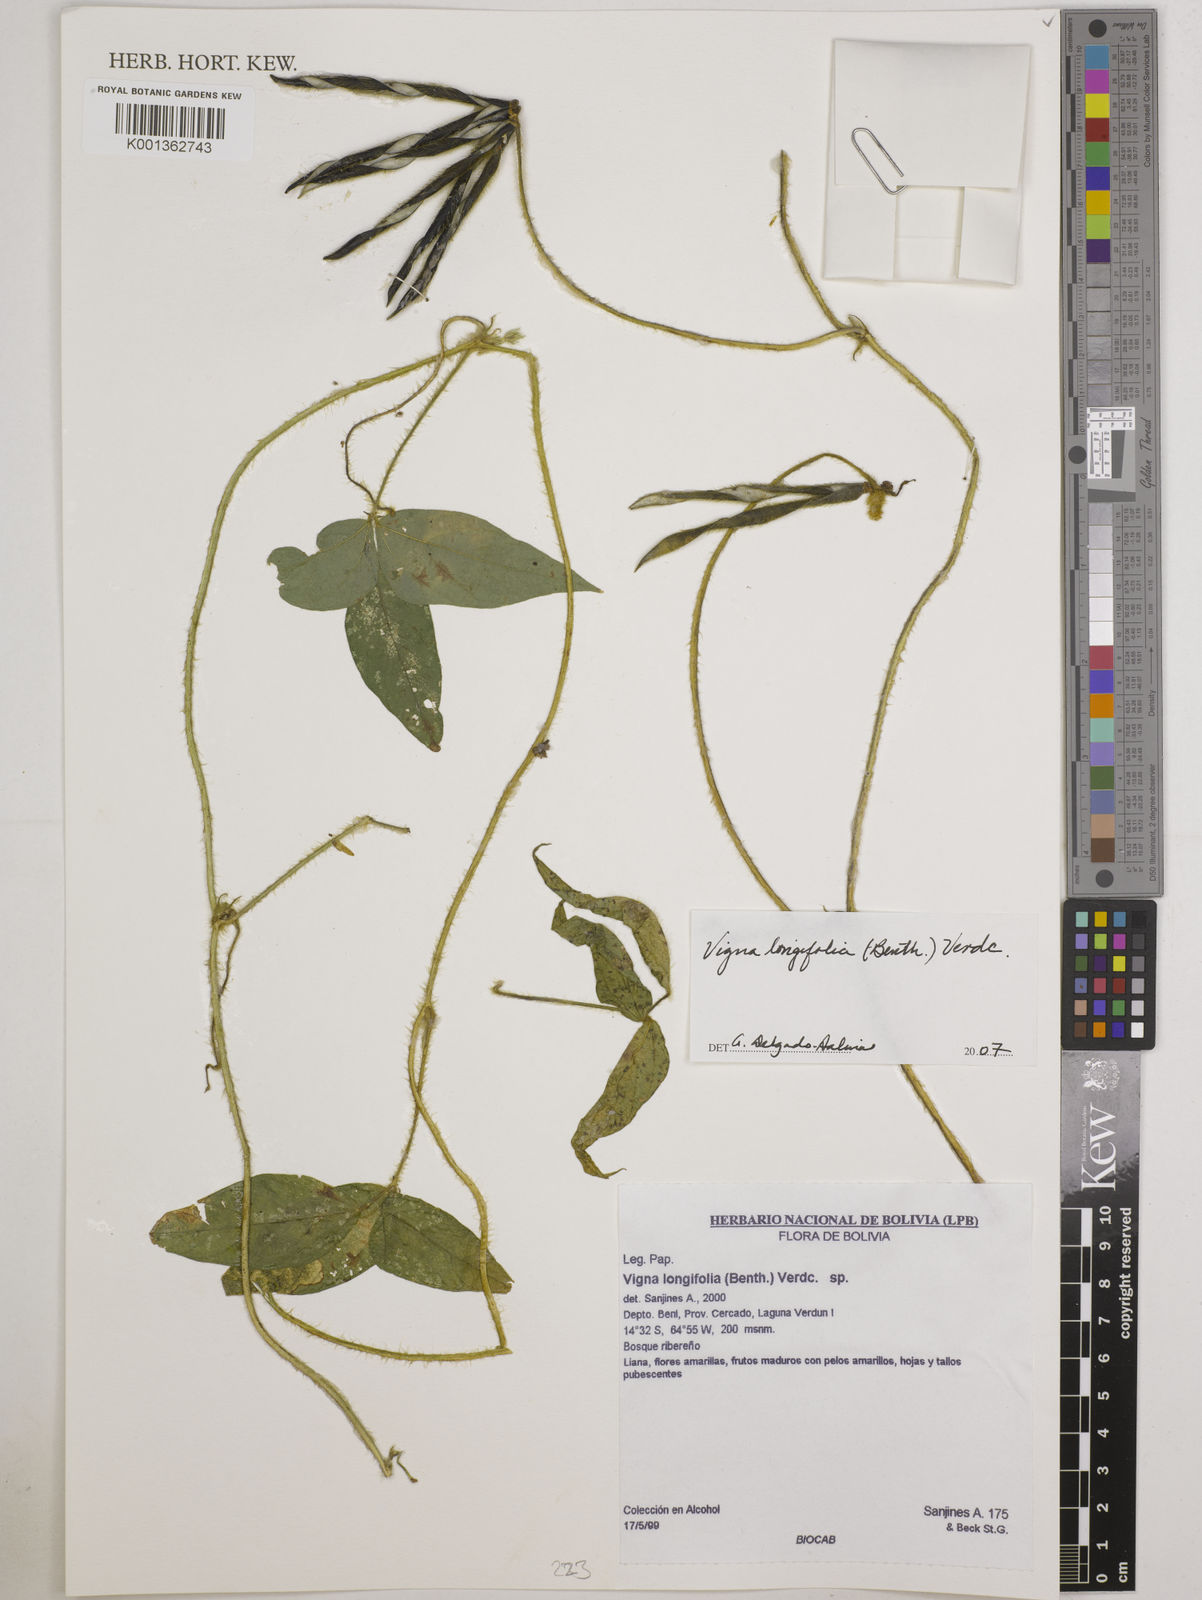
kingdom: Plantae
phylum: Tracheophyta
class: Magnoliopsida
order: Fabales
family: Fabaceae
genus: Vigna
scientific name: Vigna longifolia
